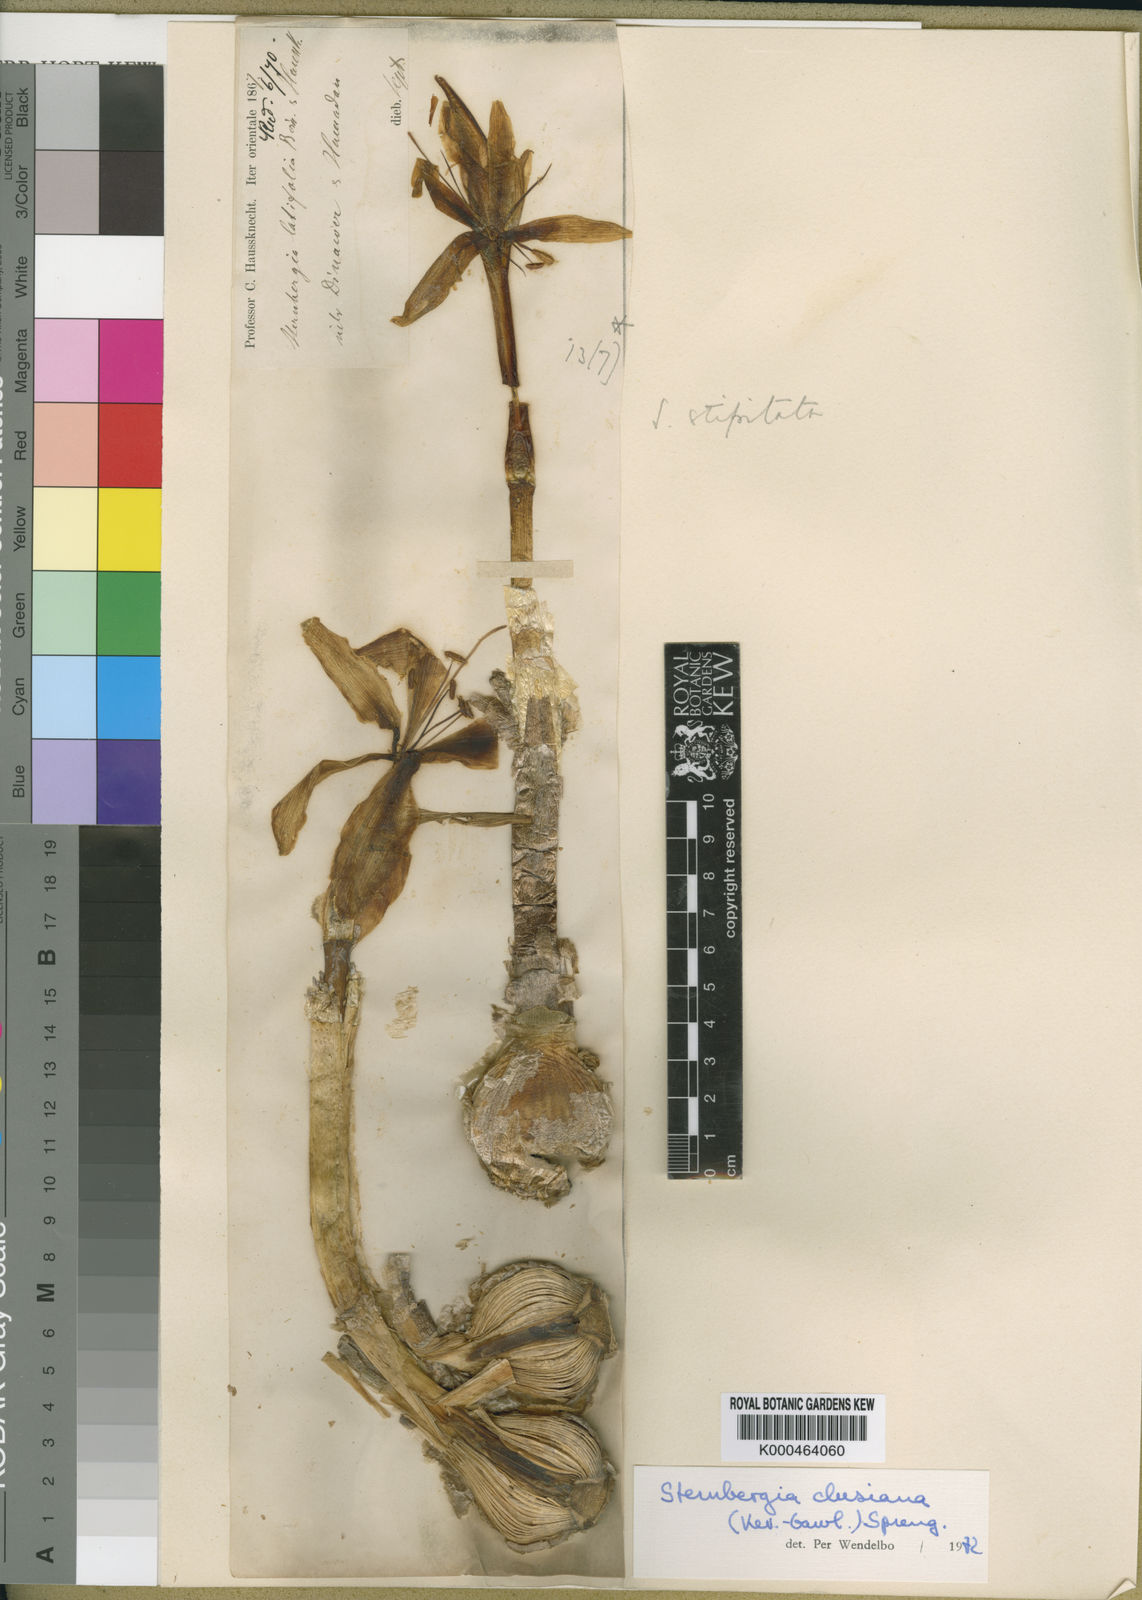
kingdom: Plantae
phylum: Tracheophyta
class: Liliopsida
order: Asparagales
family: Amaryllidaceae
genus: Sternbergia
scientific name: Sternbergia clusiana
